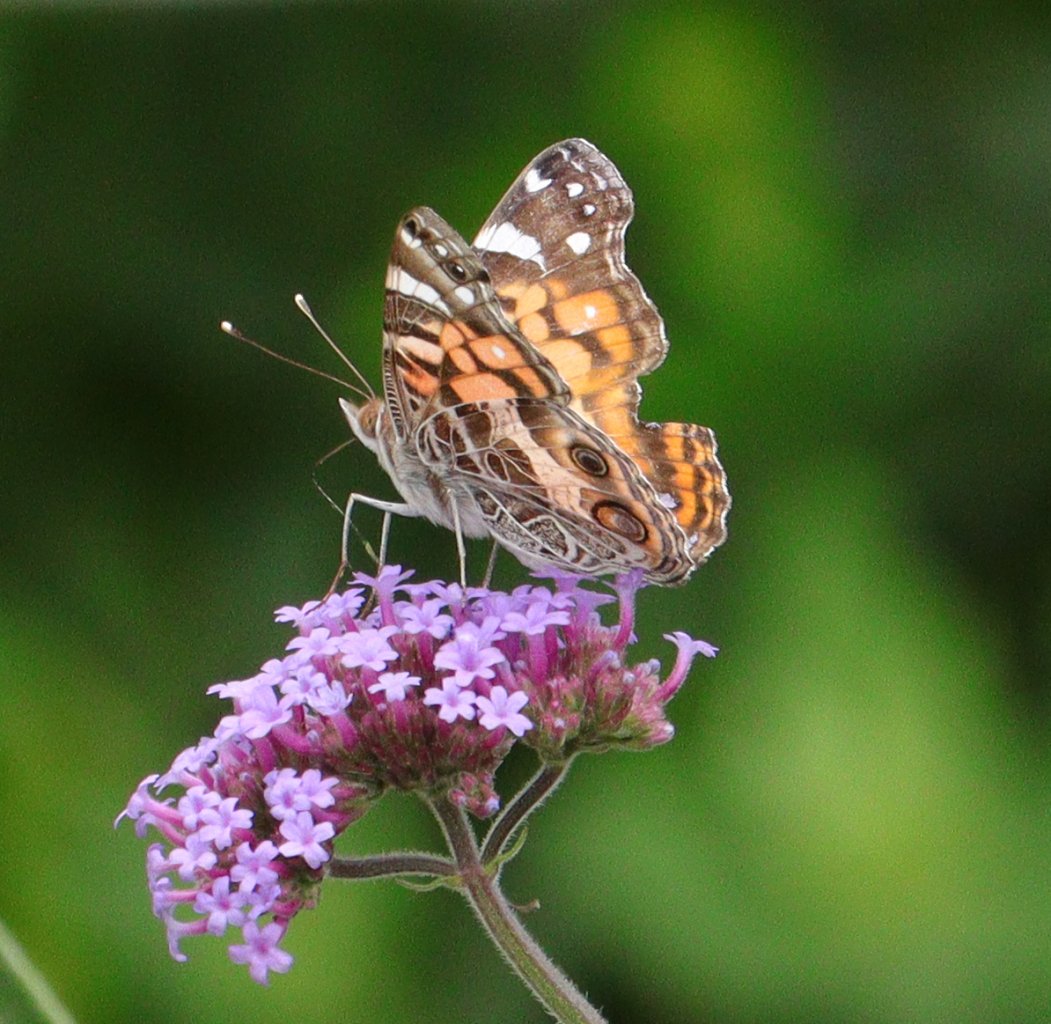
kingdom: Animalia
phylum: Arthropoda
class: Insecta
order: Lepidoptera
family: Nymphalidae
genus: Vanessa
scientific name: Vanessa virginiensis
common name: American Lady
